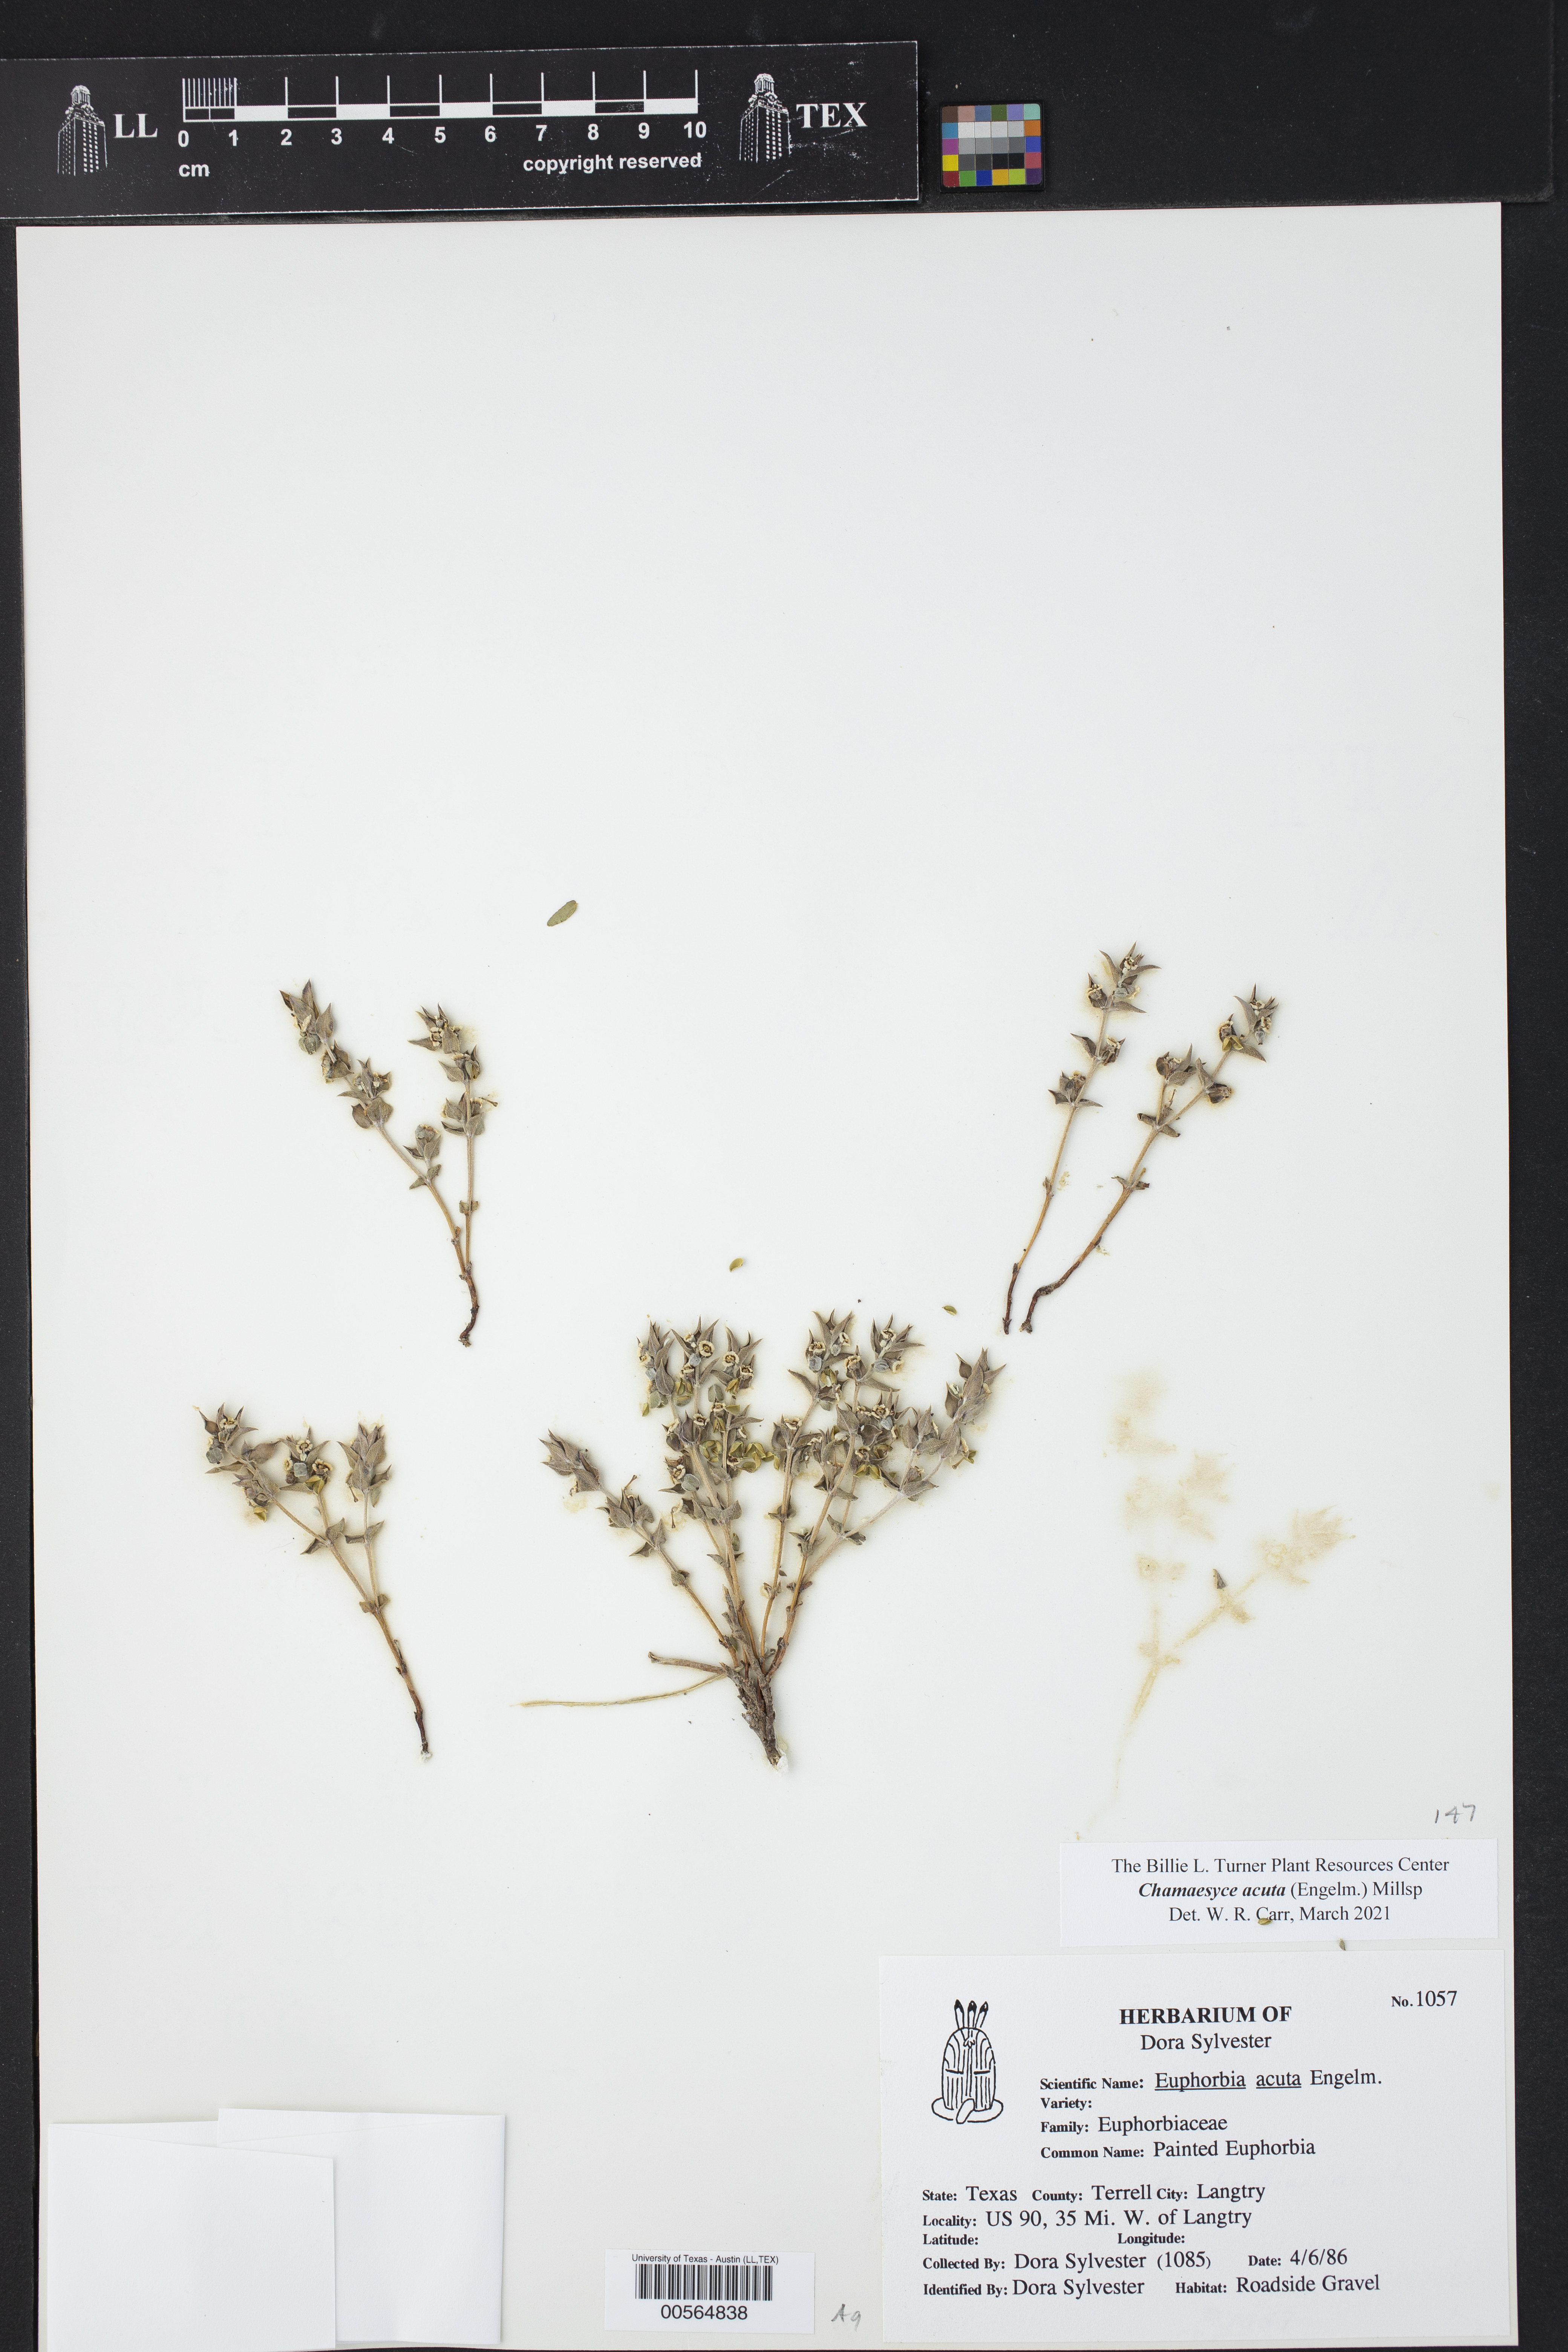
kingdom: Plantae
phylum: Tracheophyta
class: Magnoliopsida
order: Malpighiales
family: Euphorbiaceae
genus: Euphorbia
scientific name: Euphorbia acuta
